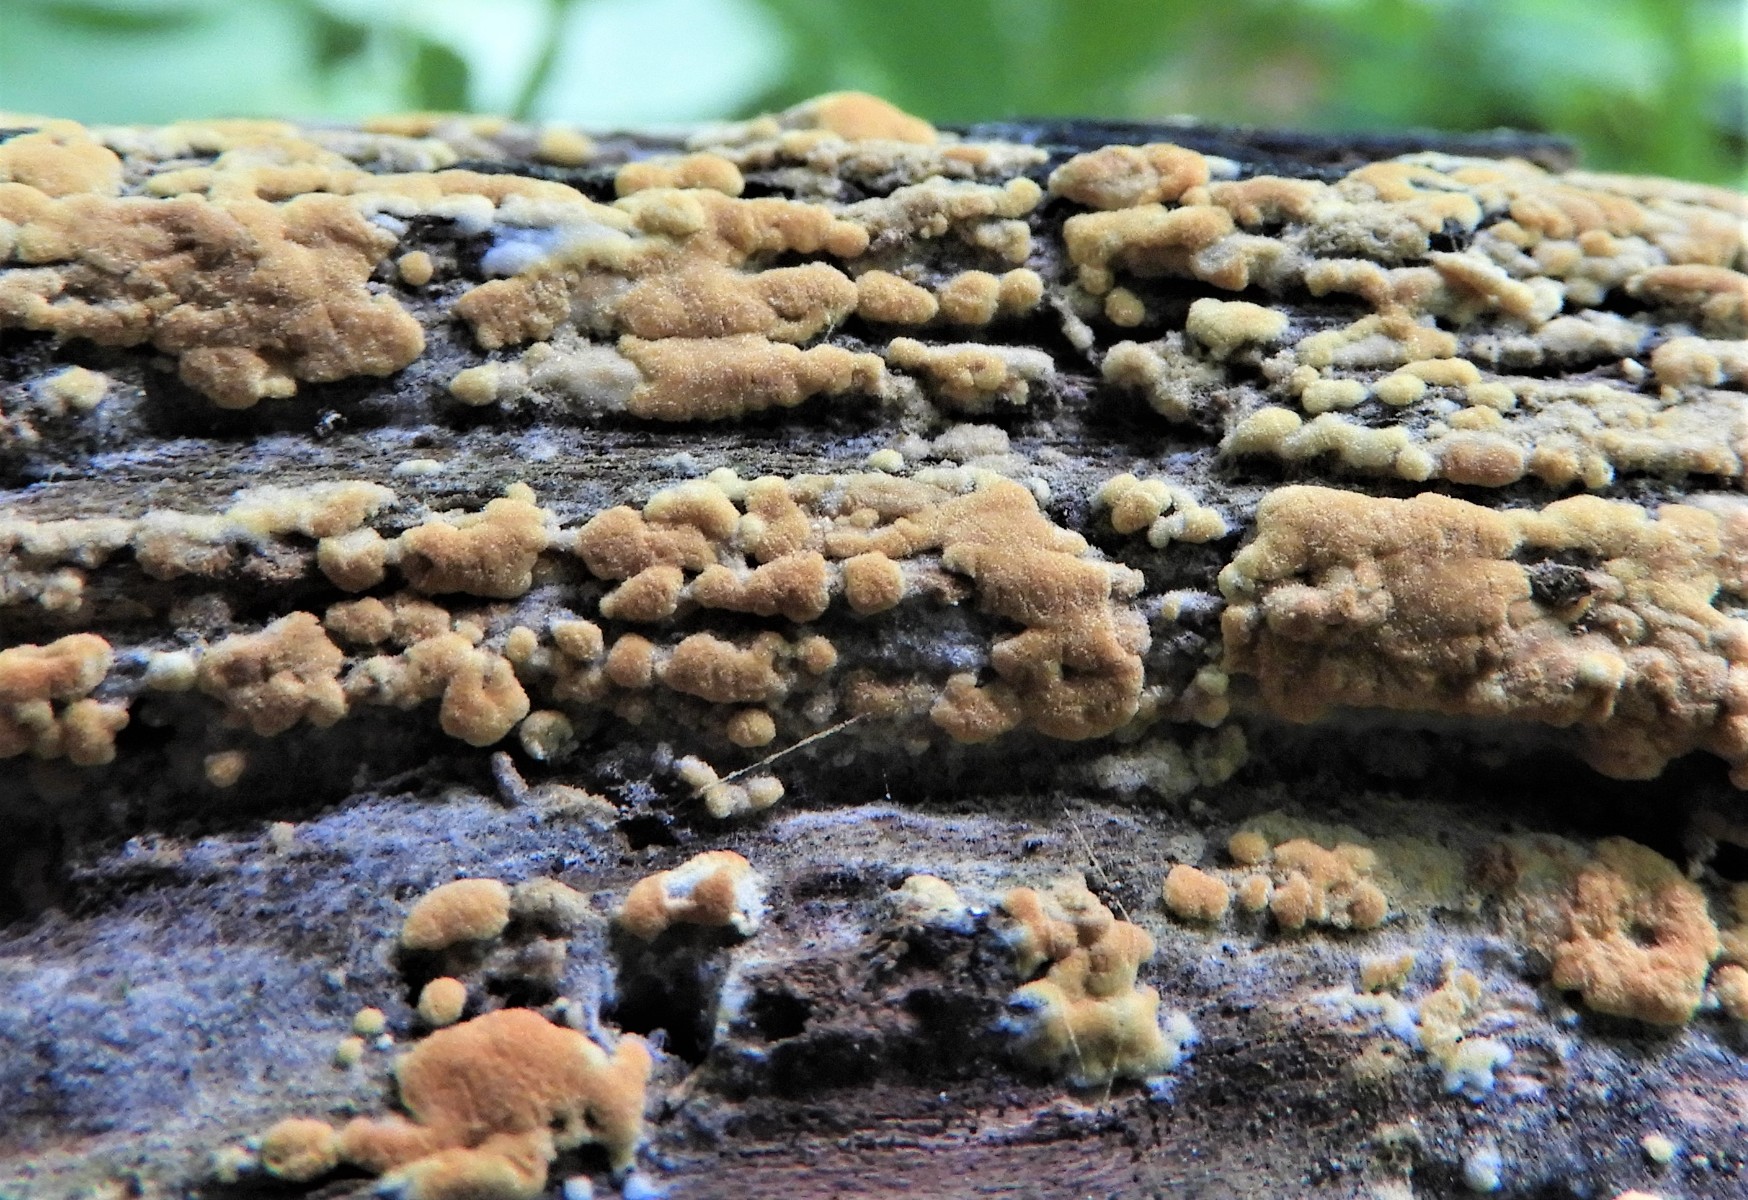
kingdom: Fungi
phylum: Basidiomycota
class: Agaricomycetes
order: Cantharellales
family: Botryobasidiaceae
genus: Botryobasidium
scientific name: Botryobasidium aureum
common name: gylden spindhinde
